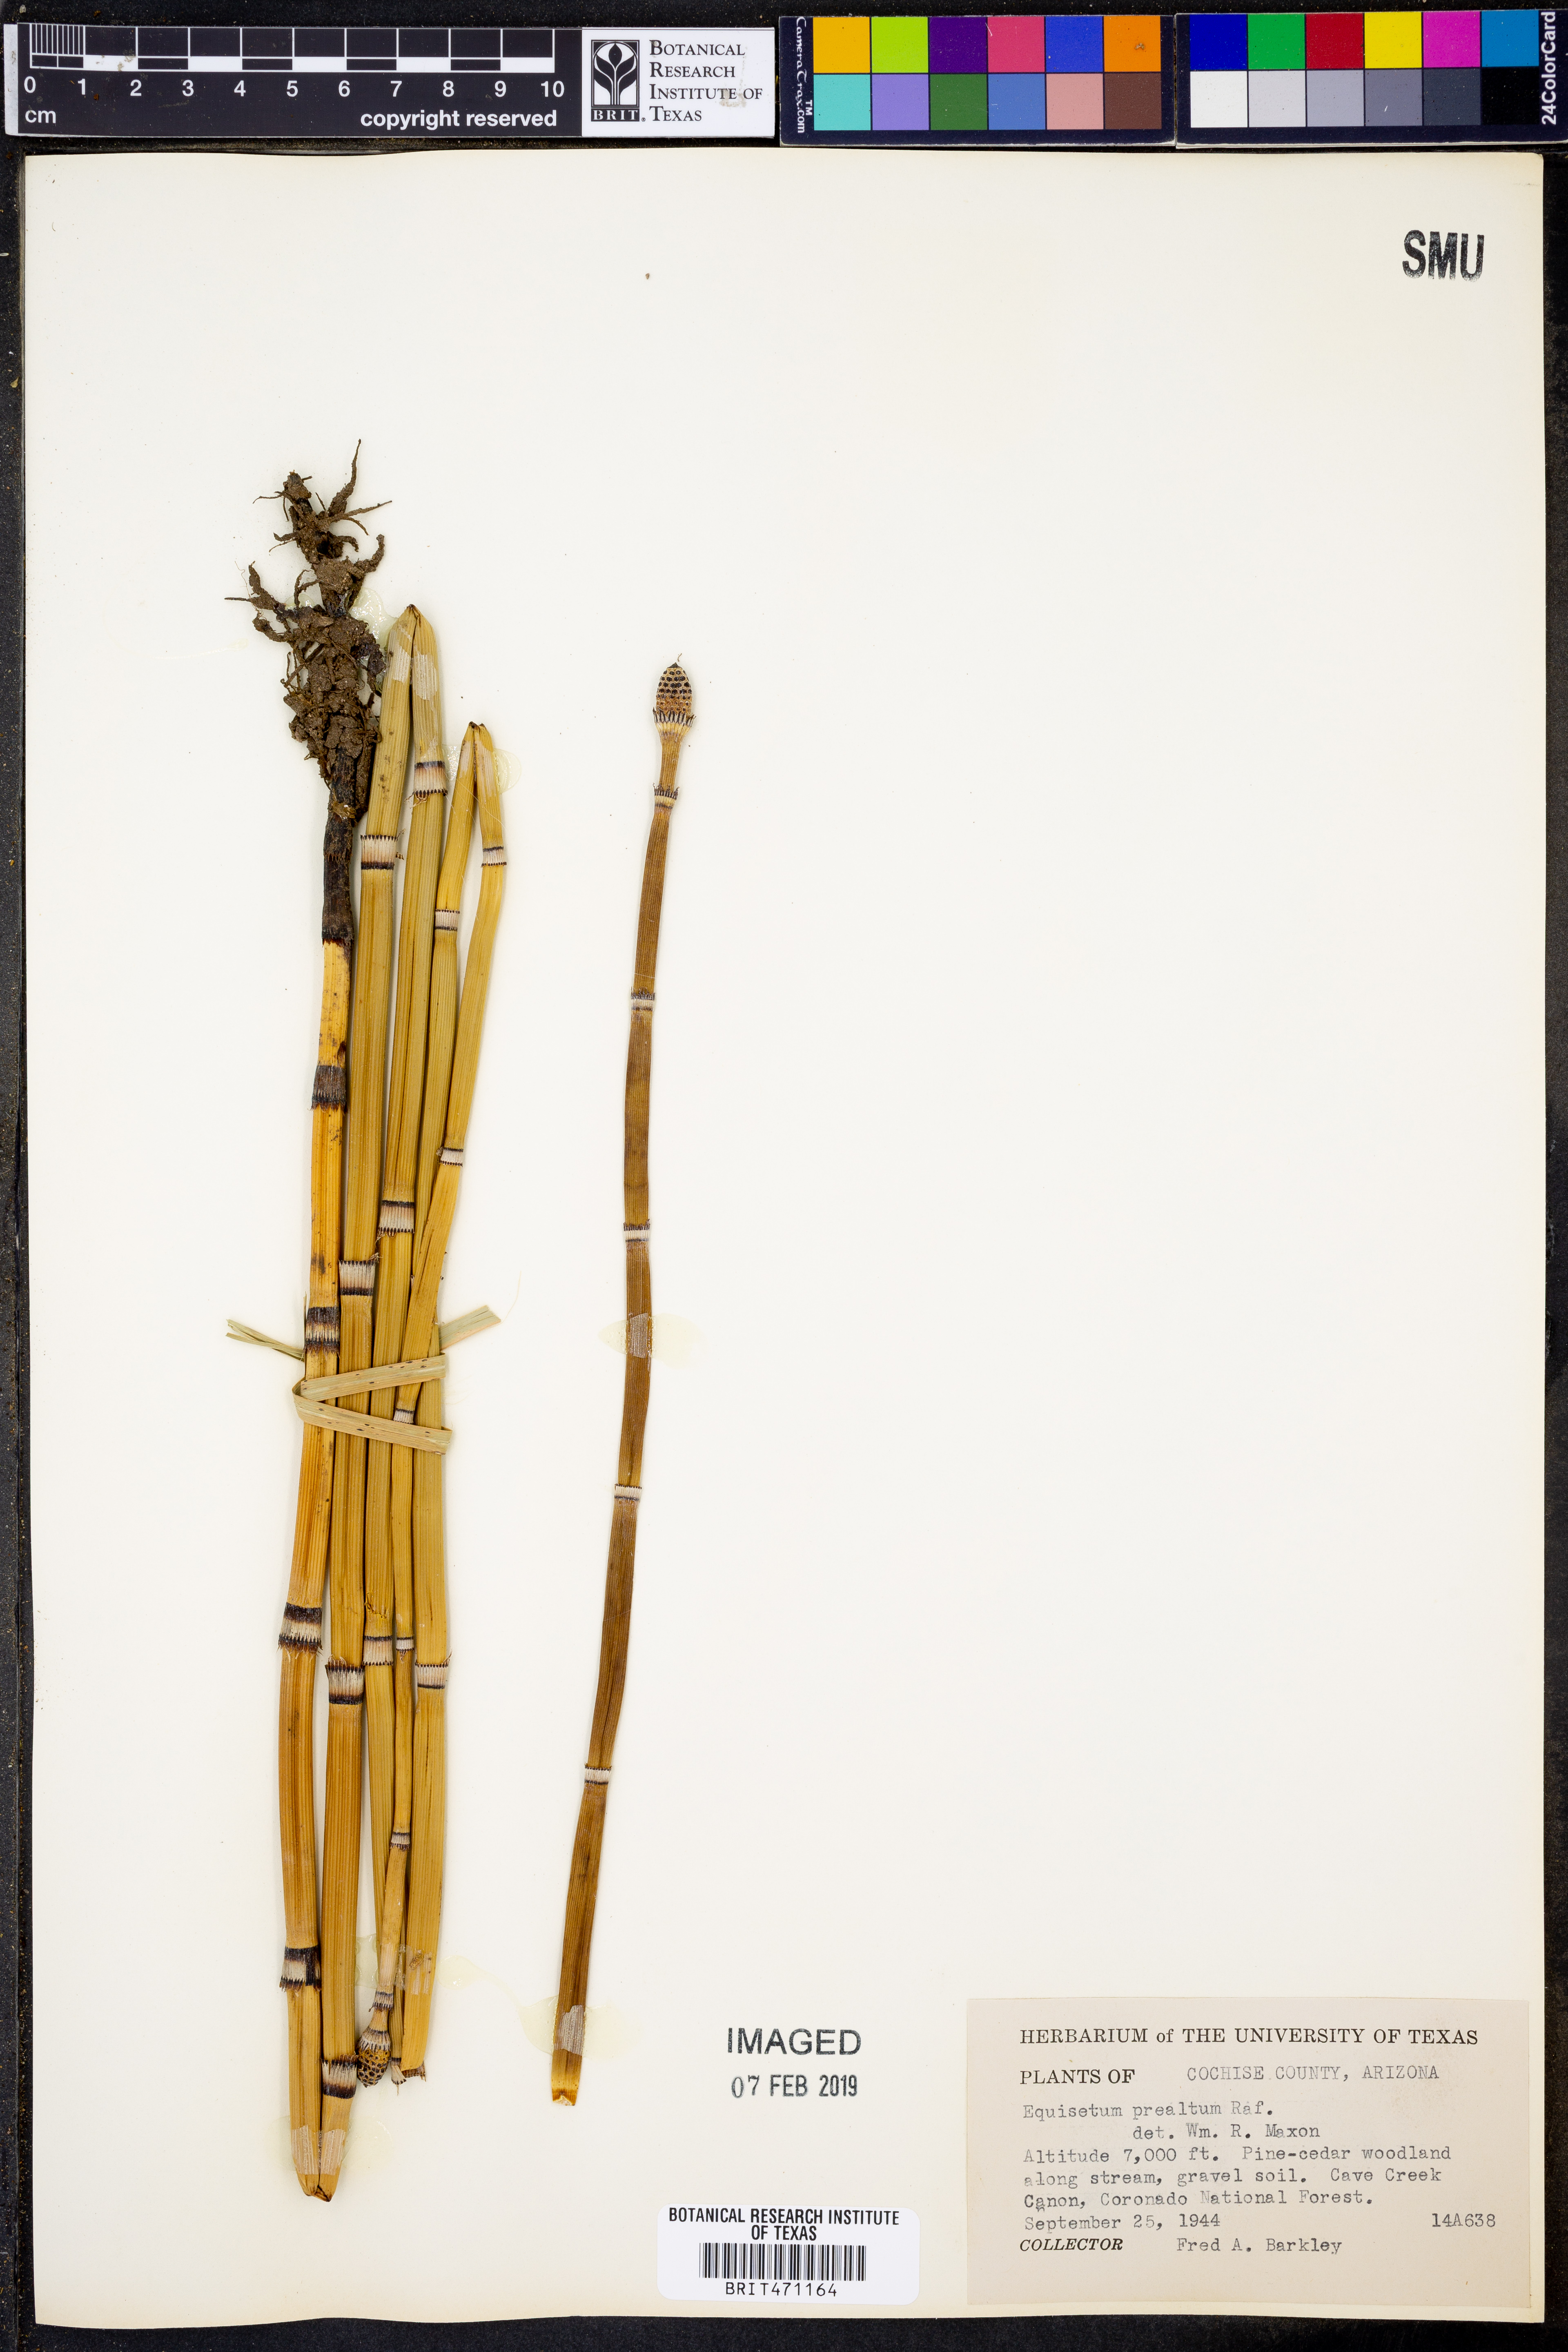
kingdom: Plantae
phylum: Tracheophyta
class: Polypodiopsida
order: Equisetales
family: Equisetaceae
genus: Equisetum
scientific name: Equisetum praealtum
